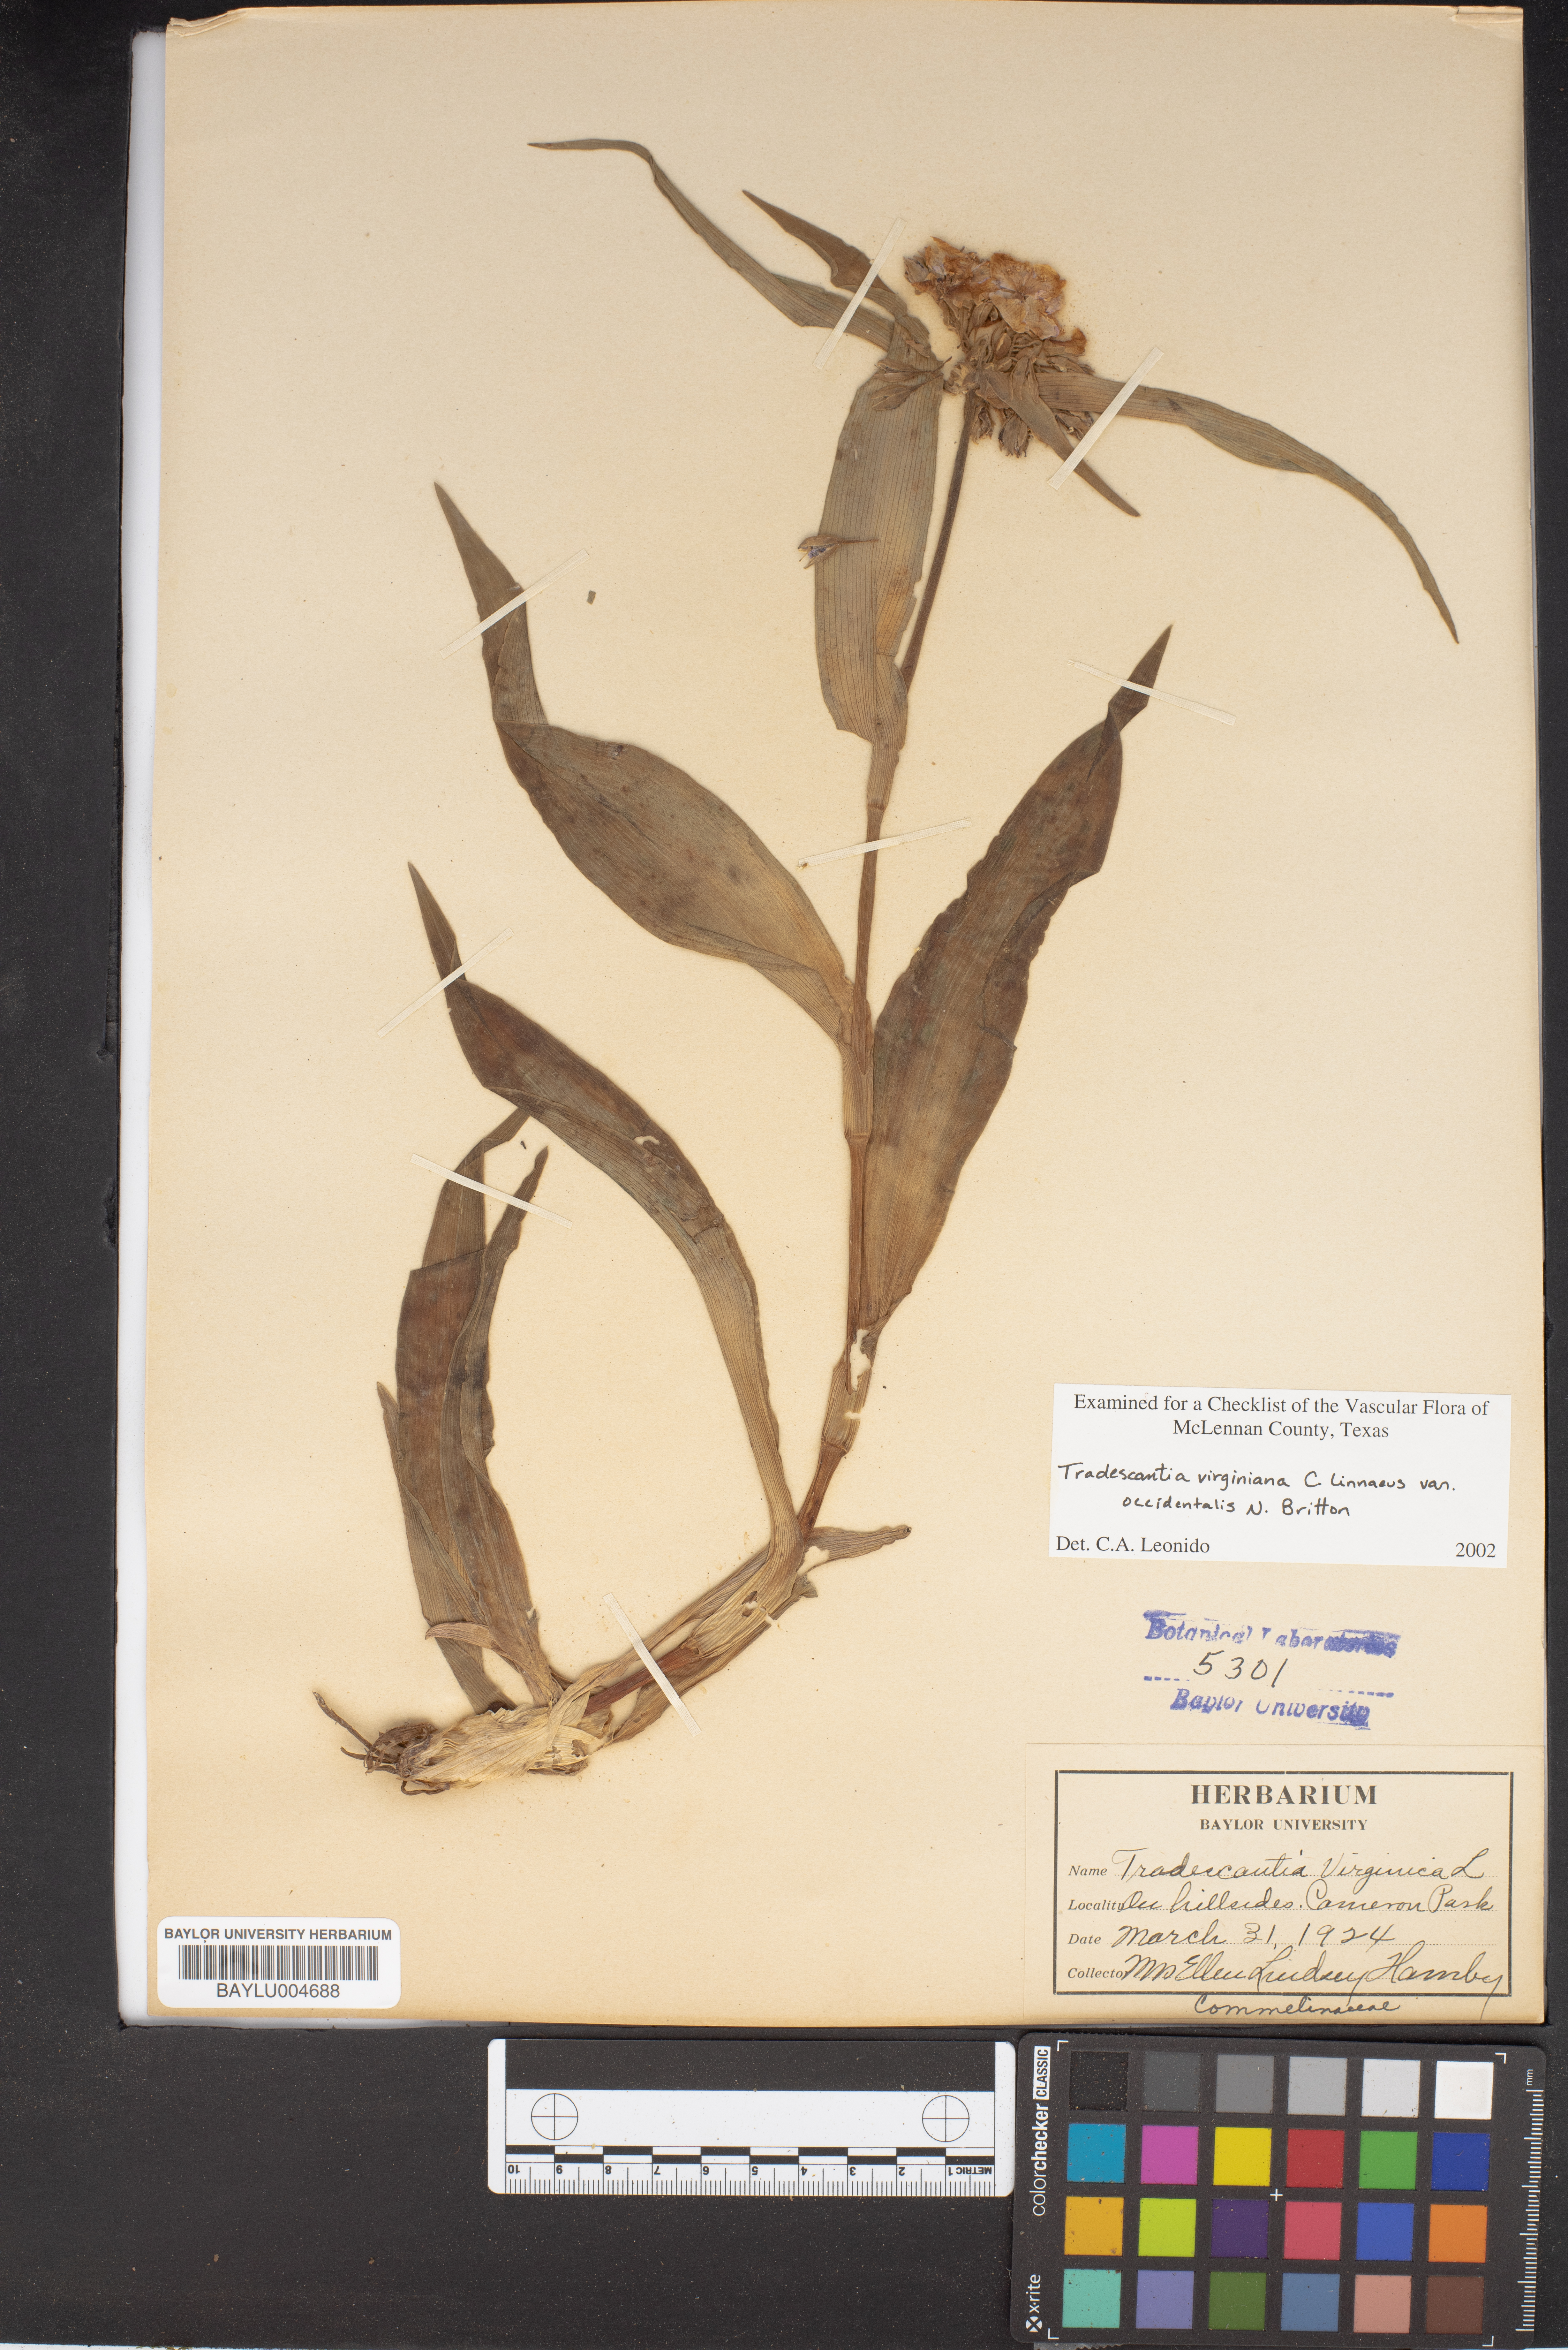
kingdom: Plantae
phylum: Tracheophyta
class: Liliopsida
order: Commelinales
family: Commelinaceae
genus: Tradescantia
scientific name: Tradescantia occidentalis
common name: Prairie spiderwort
